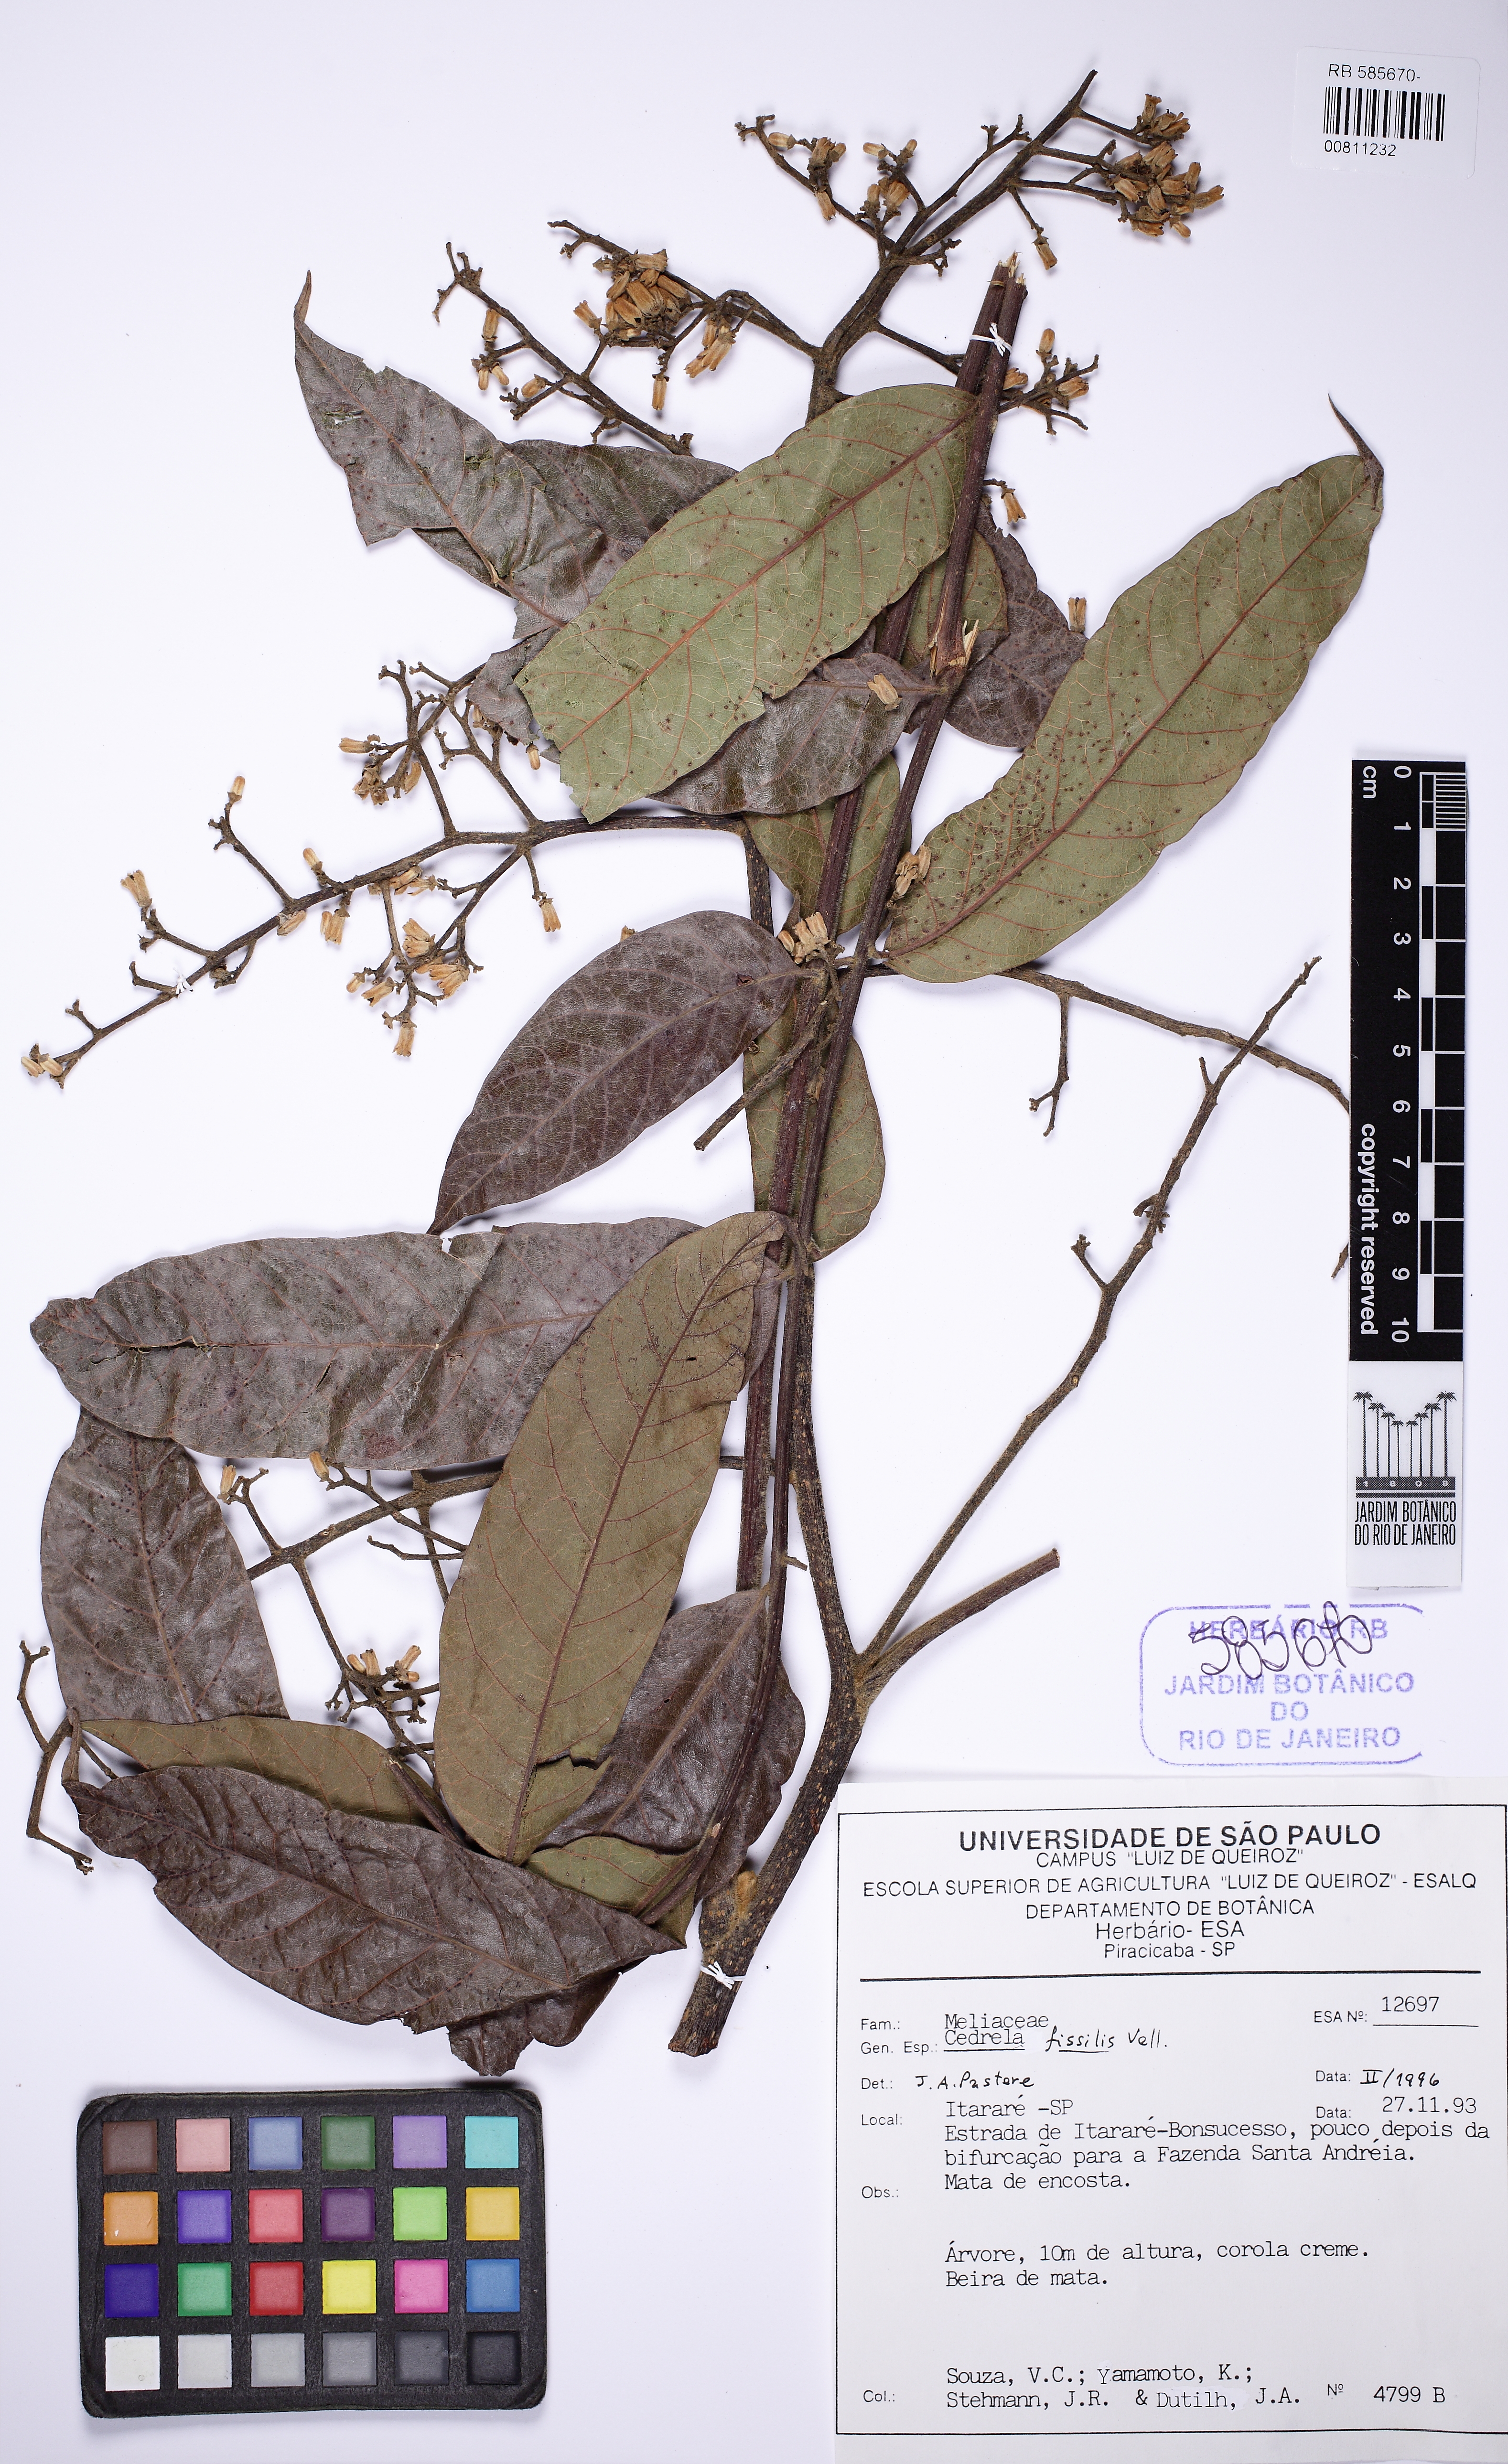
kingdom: Plantae
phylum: Tracheophyta
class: Magnoliopsida
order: Sapindales
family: Meliaceae
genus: Cedrela
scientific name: Cedrela fissilis
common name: Argentine cedar
